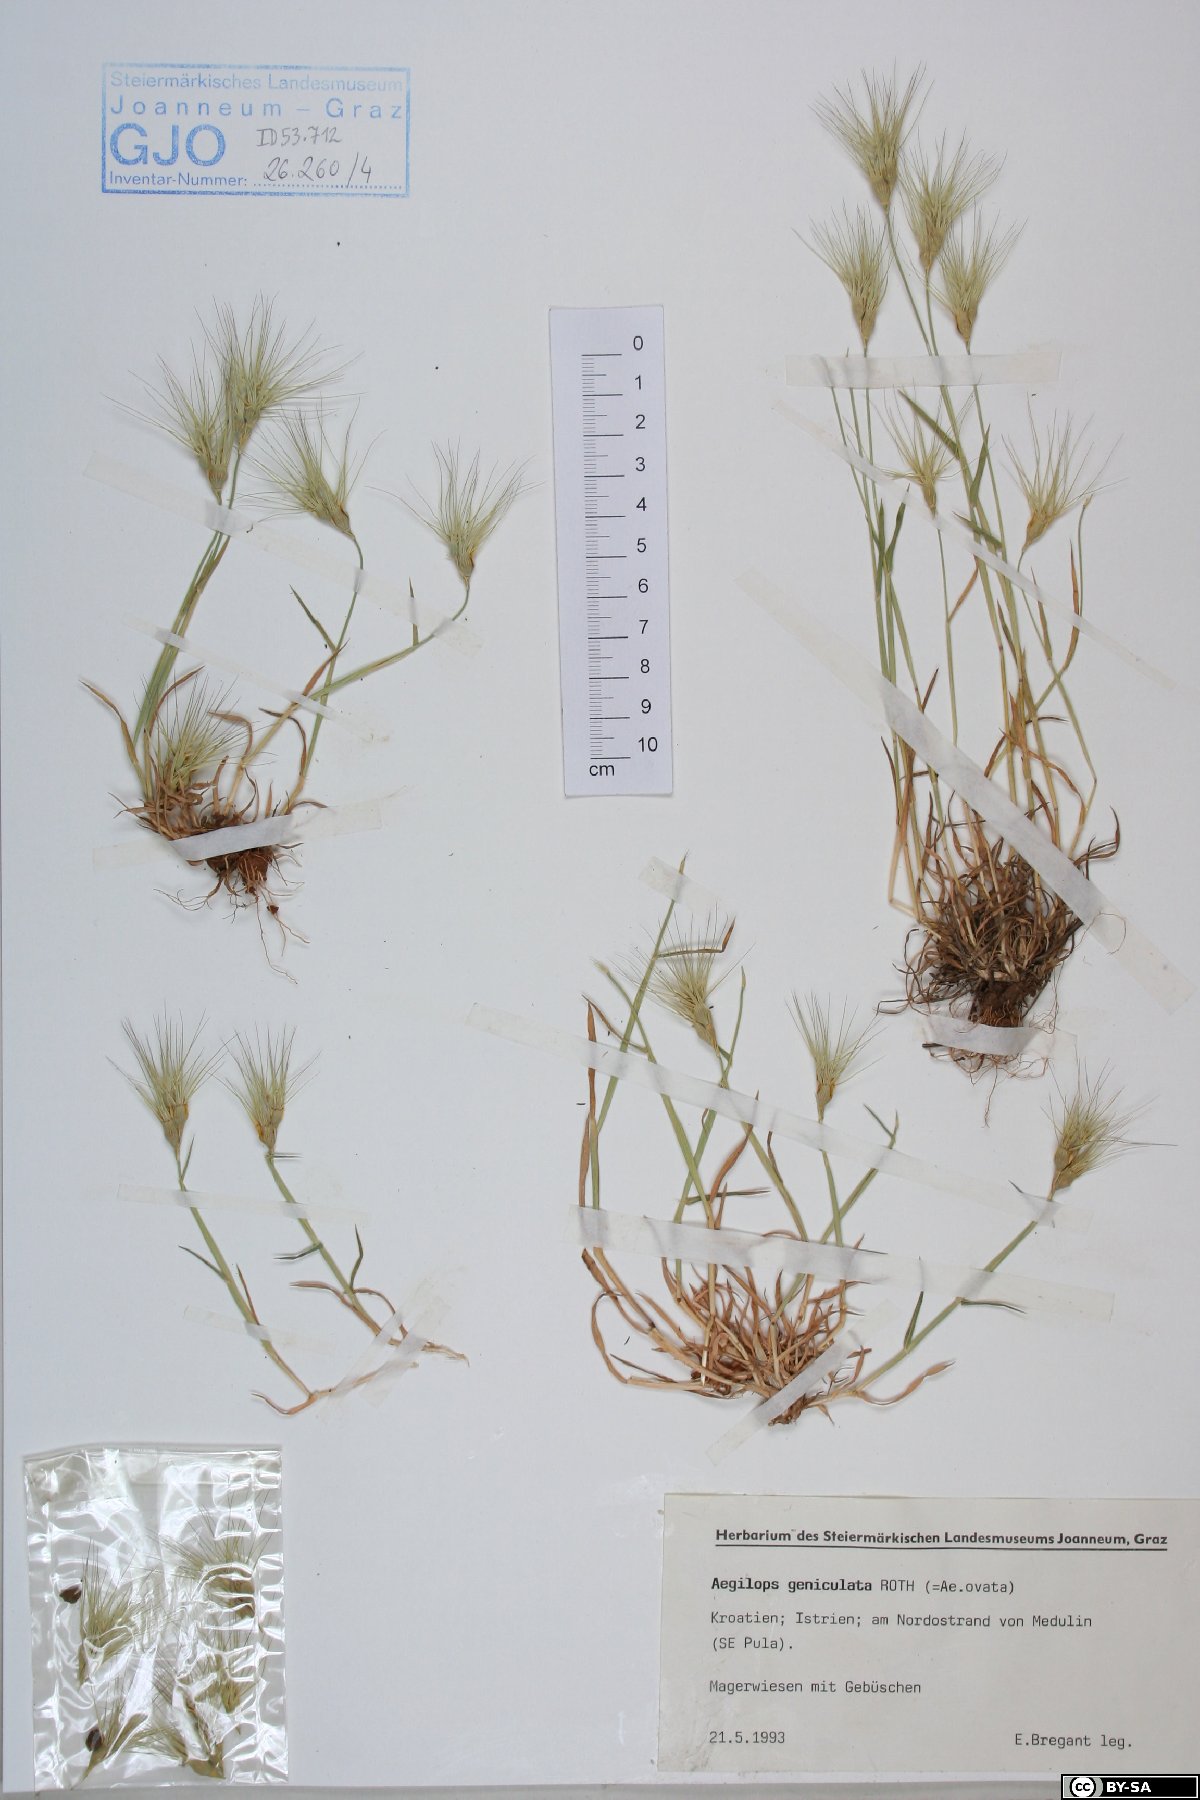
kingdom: Plantae
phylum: Tracheophyta
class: Liliopsida
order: Poales
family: Poaceae
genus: Aegilops
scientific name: Aegilops geniculata
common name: Ovate goat grass
